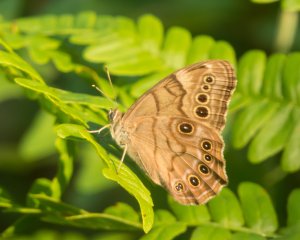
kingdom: Animalia
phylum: Arthropoda
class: Insecta
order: Lepidoptera
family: Nymphalidae
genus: Lethe
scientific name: Lethe anthedon
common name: Northern Pearly-Eye
